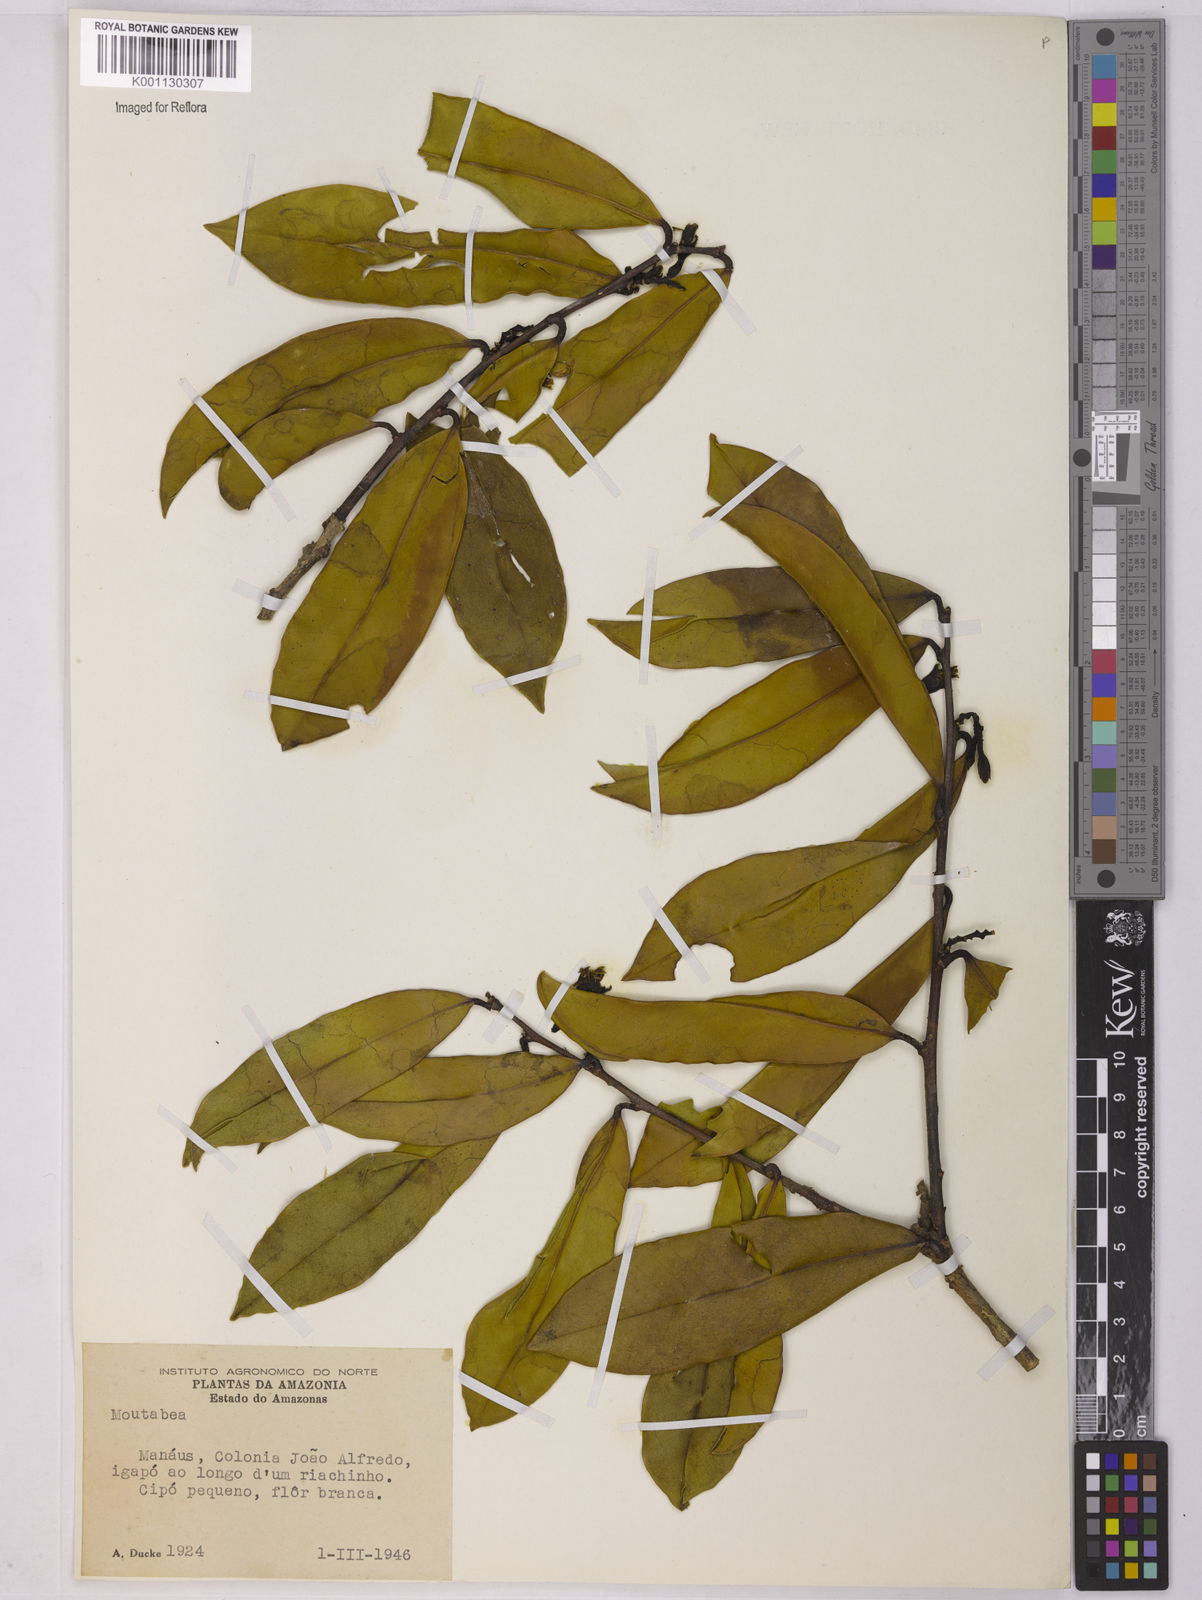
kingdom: Plantae
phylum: Tracheophyta
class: Magnoliopsida
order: Fabales
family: Polygalaceae
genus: Moutabea
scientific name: Moutabea
